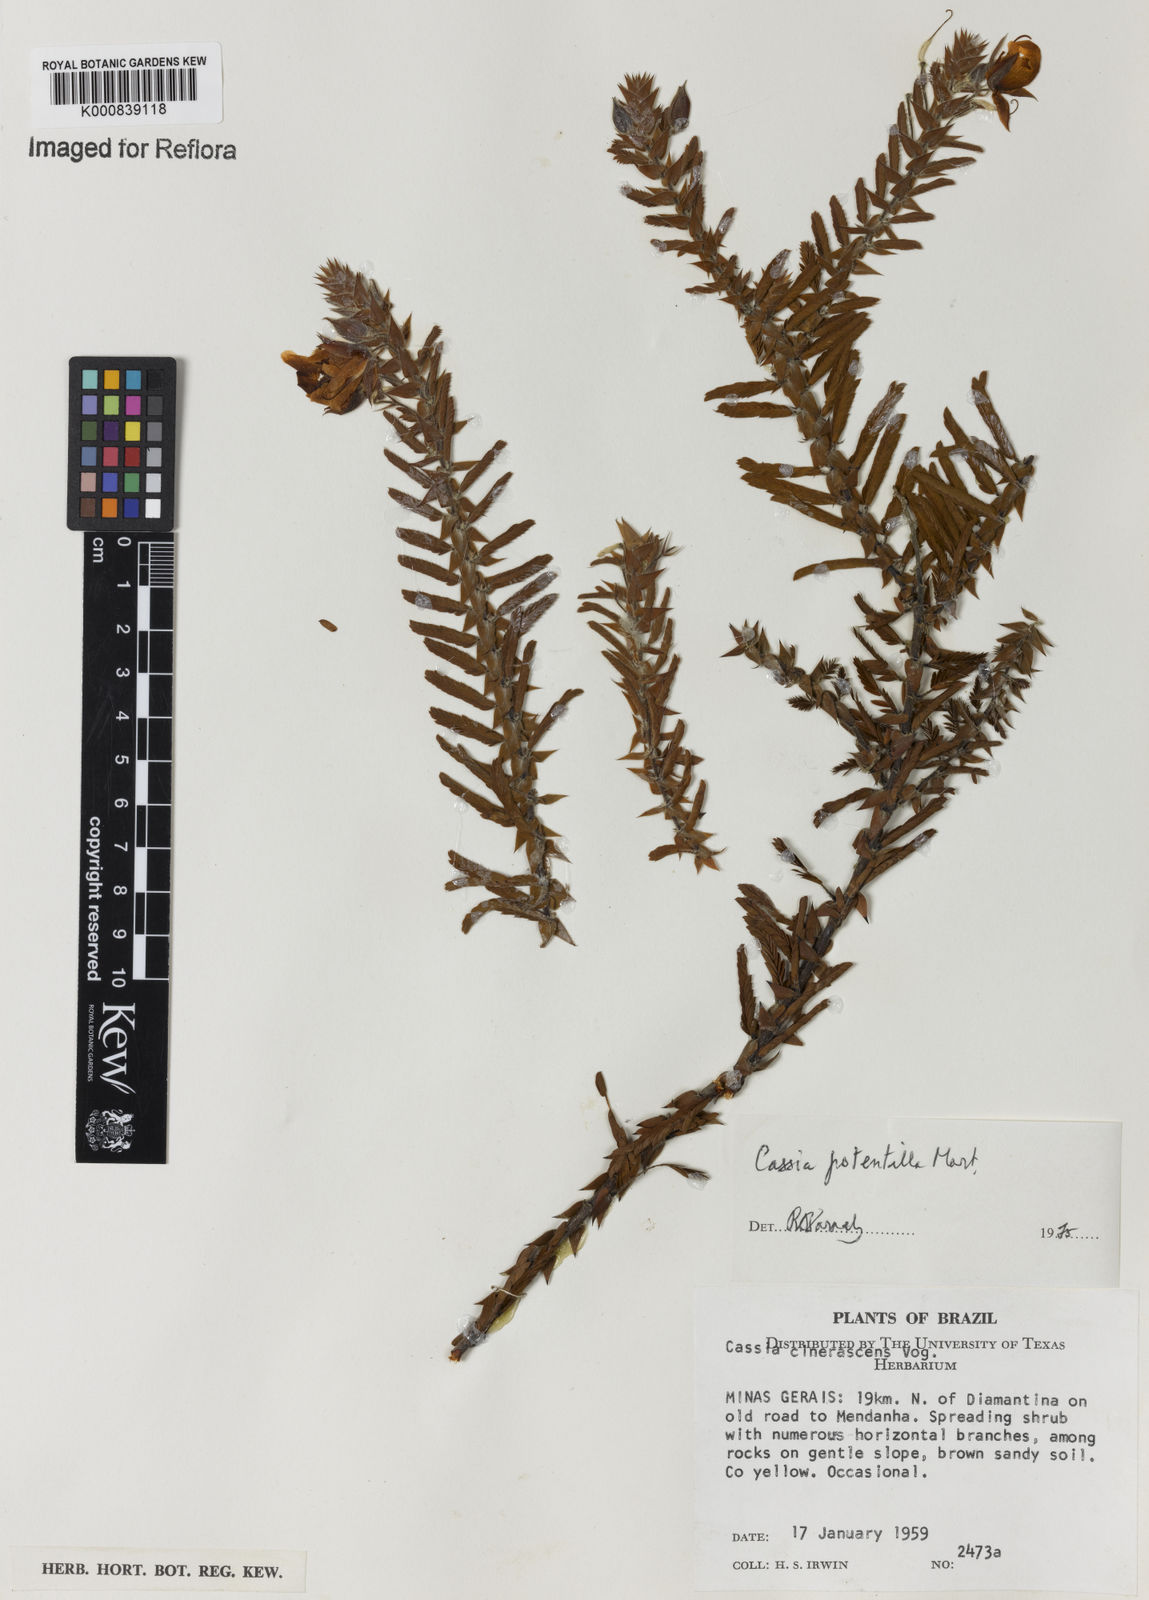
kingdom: Plantae
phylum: Tracheophyta
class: Magnoliopsida
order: Fabales
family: Fabaceae
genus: Chamaecrista
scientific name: Chamaecrista potentilla
